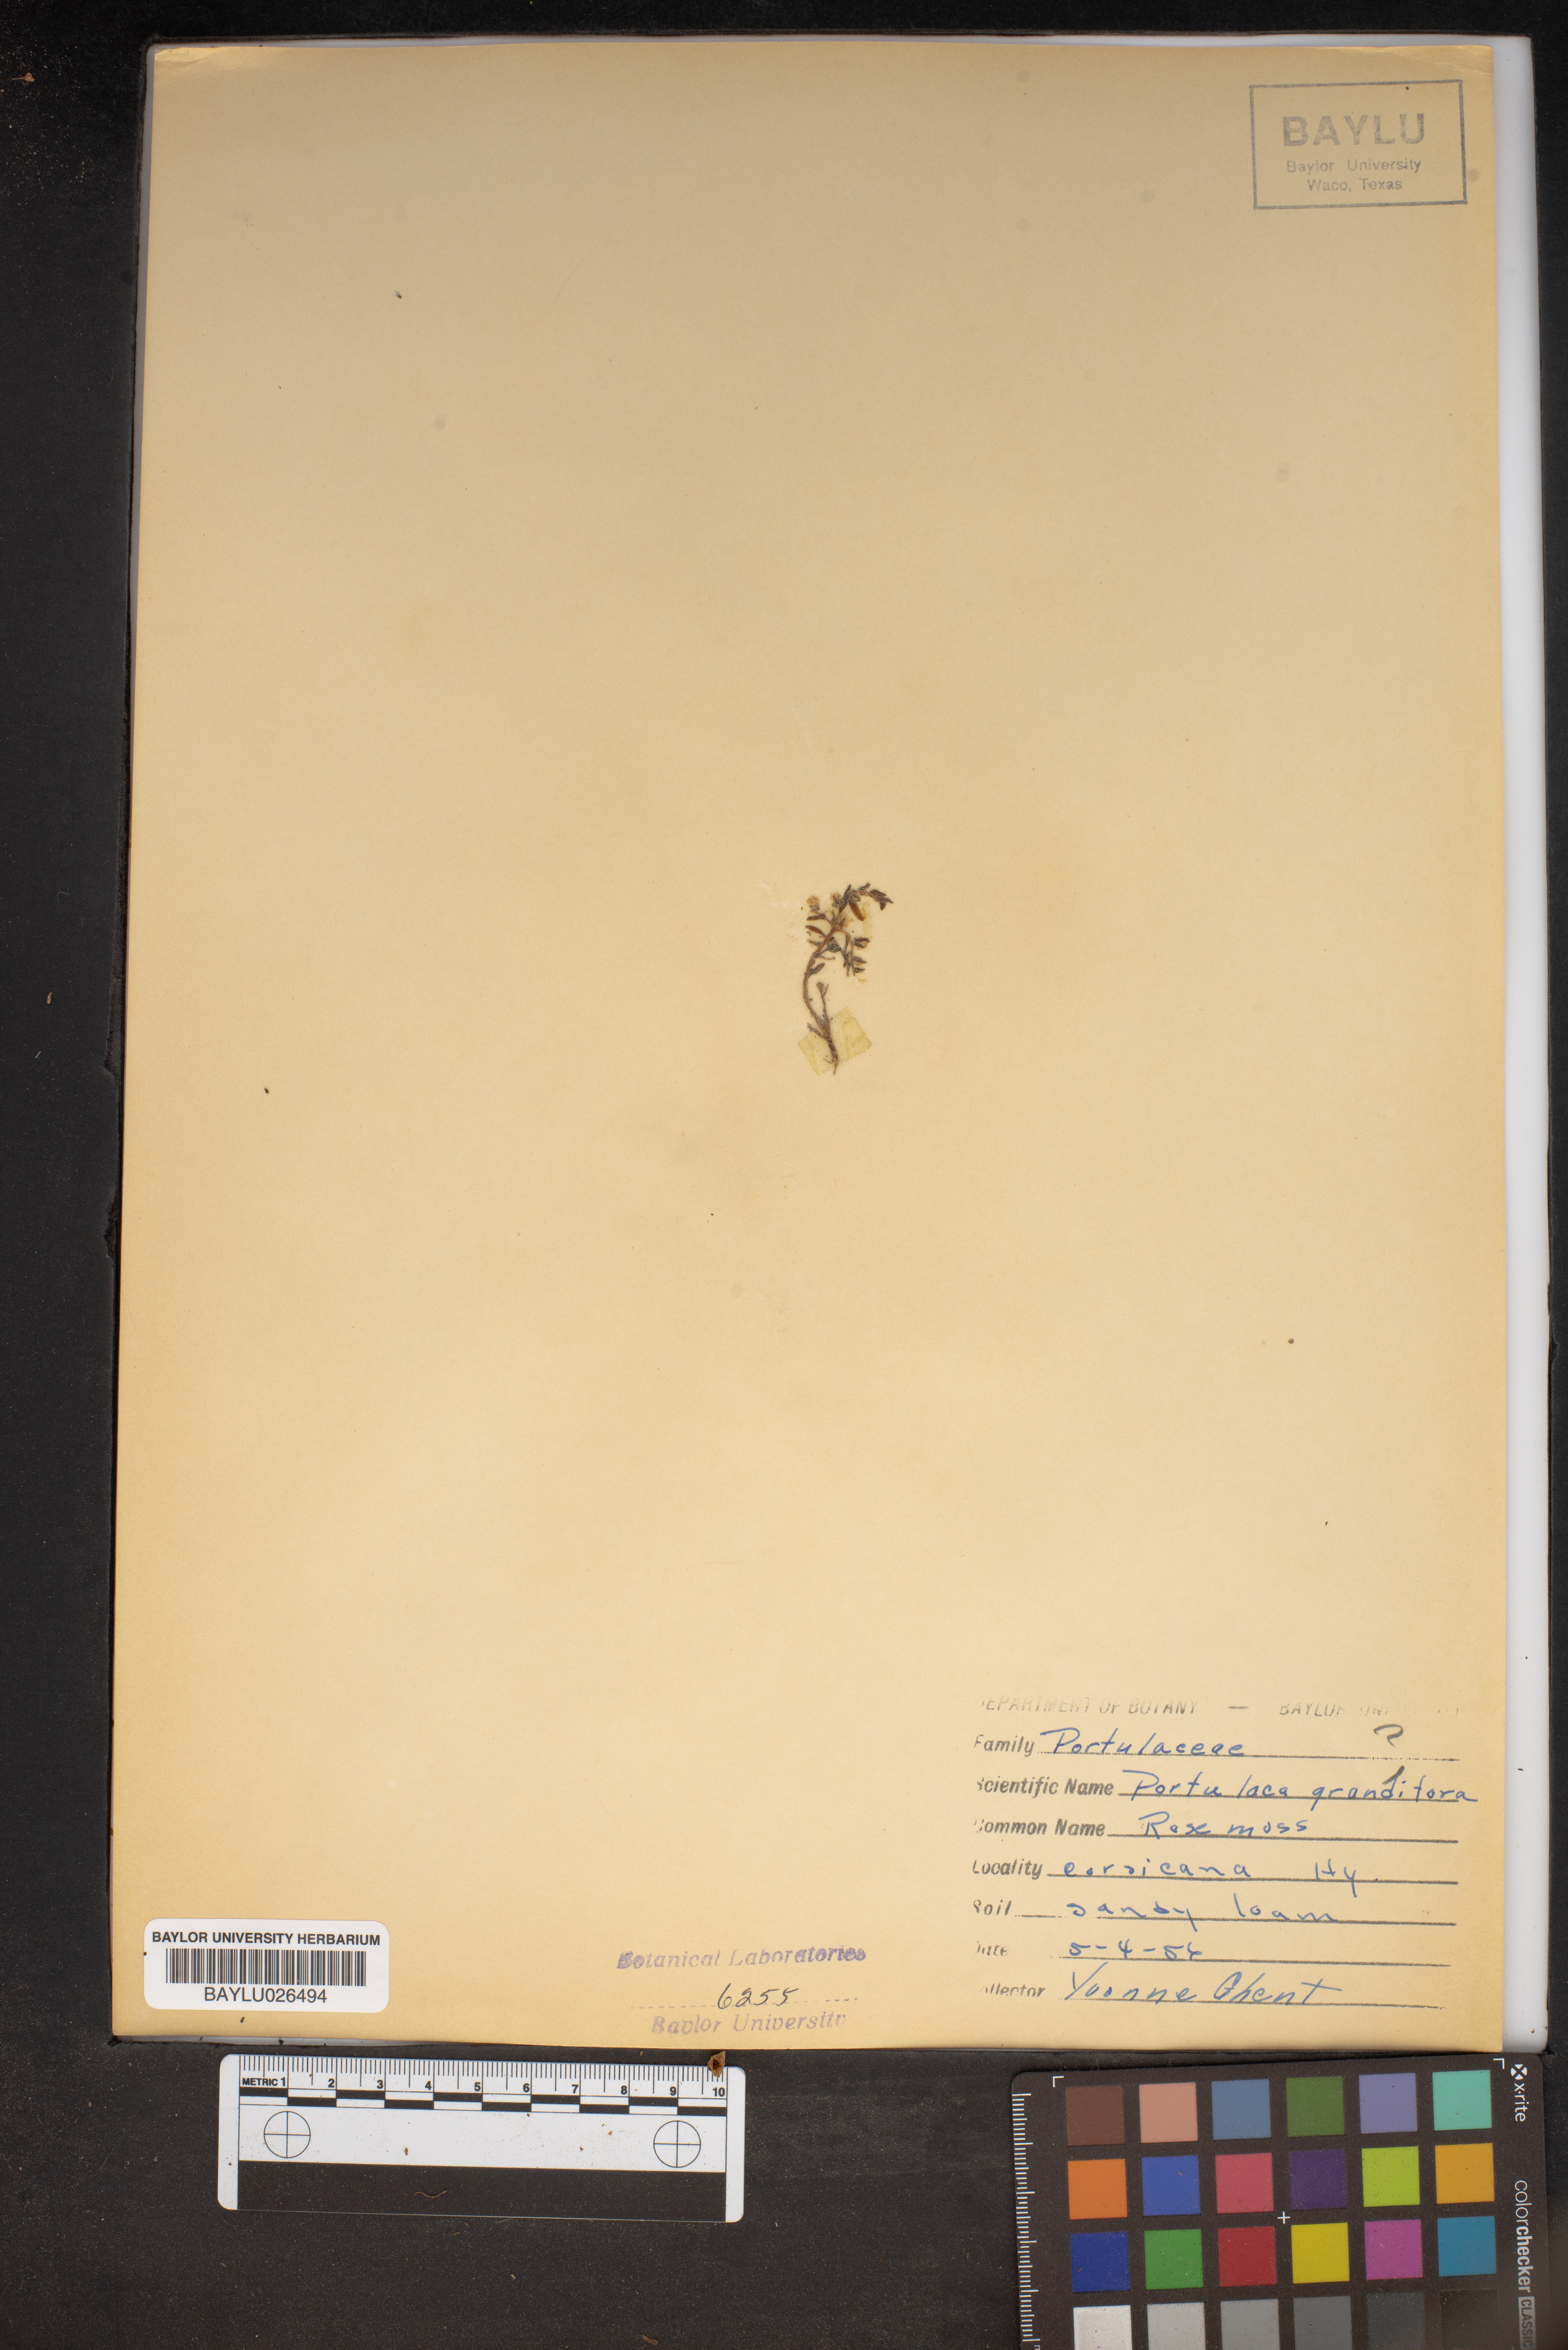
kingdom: Plantae
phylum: Tracheophyta
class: Magnoliopsida
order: Caryophyllales
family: Portulacaceae
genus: Portulaca
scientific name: Portulaca grandiflora
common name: Moss-rose
